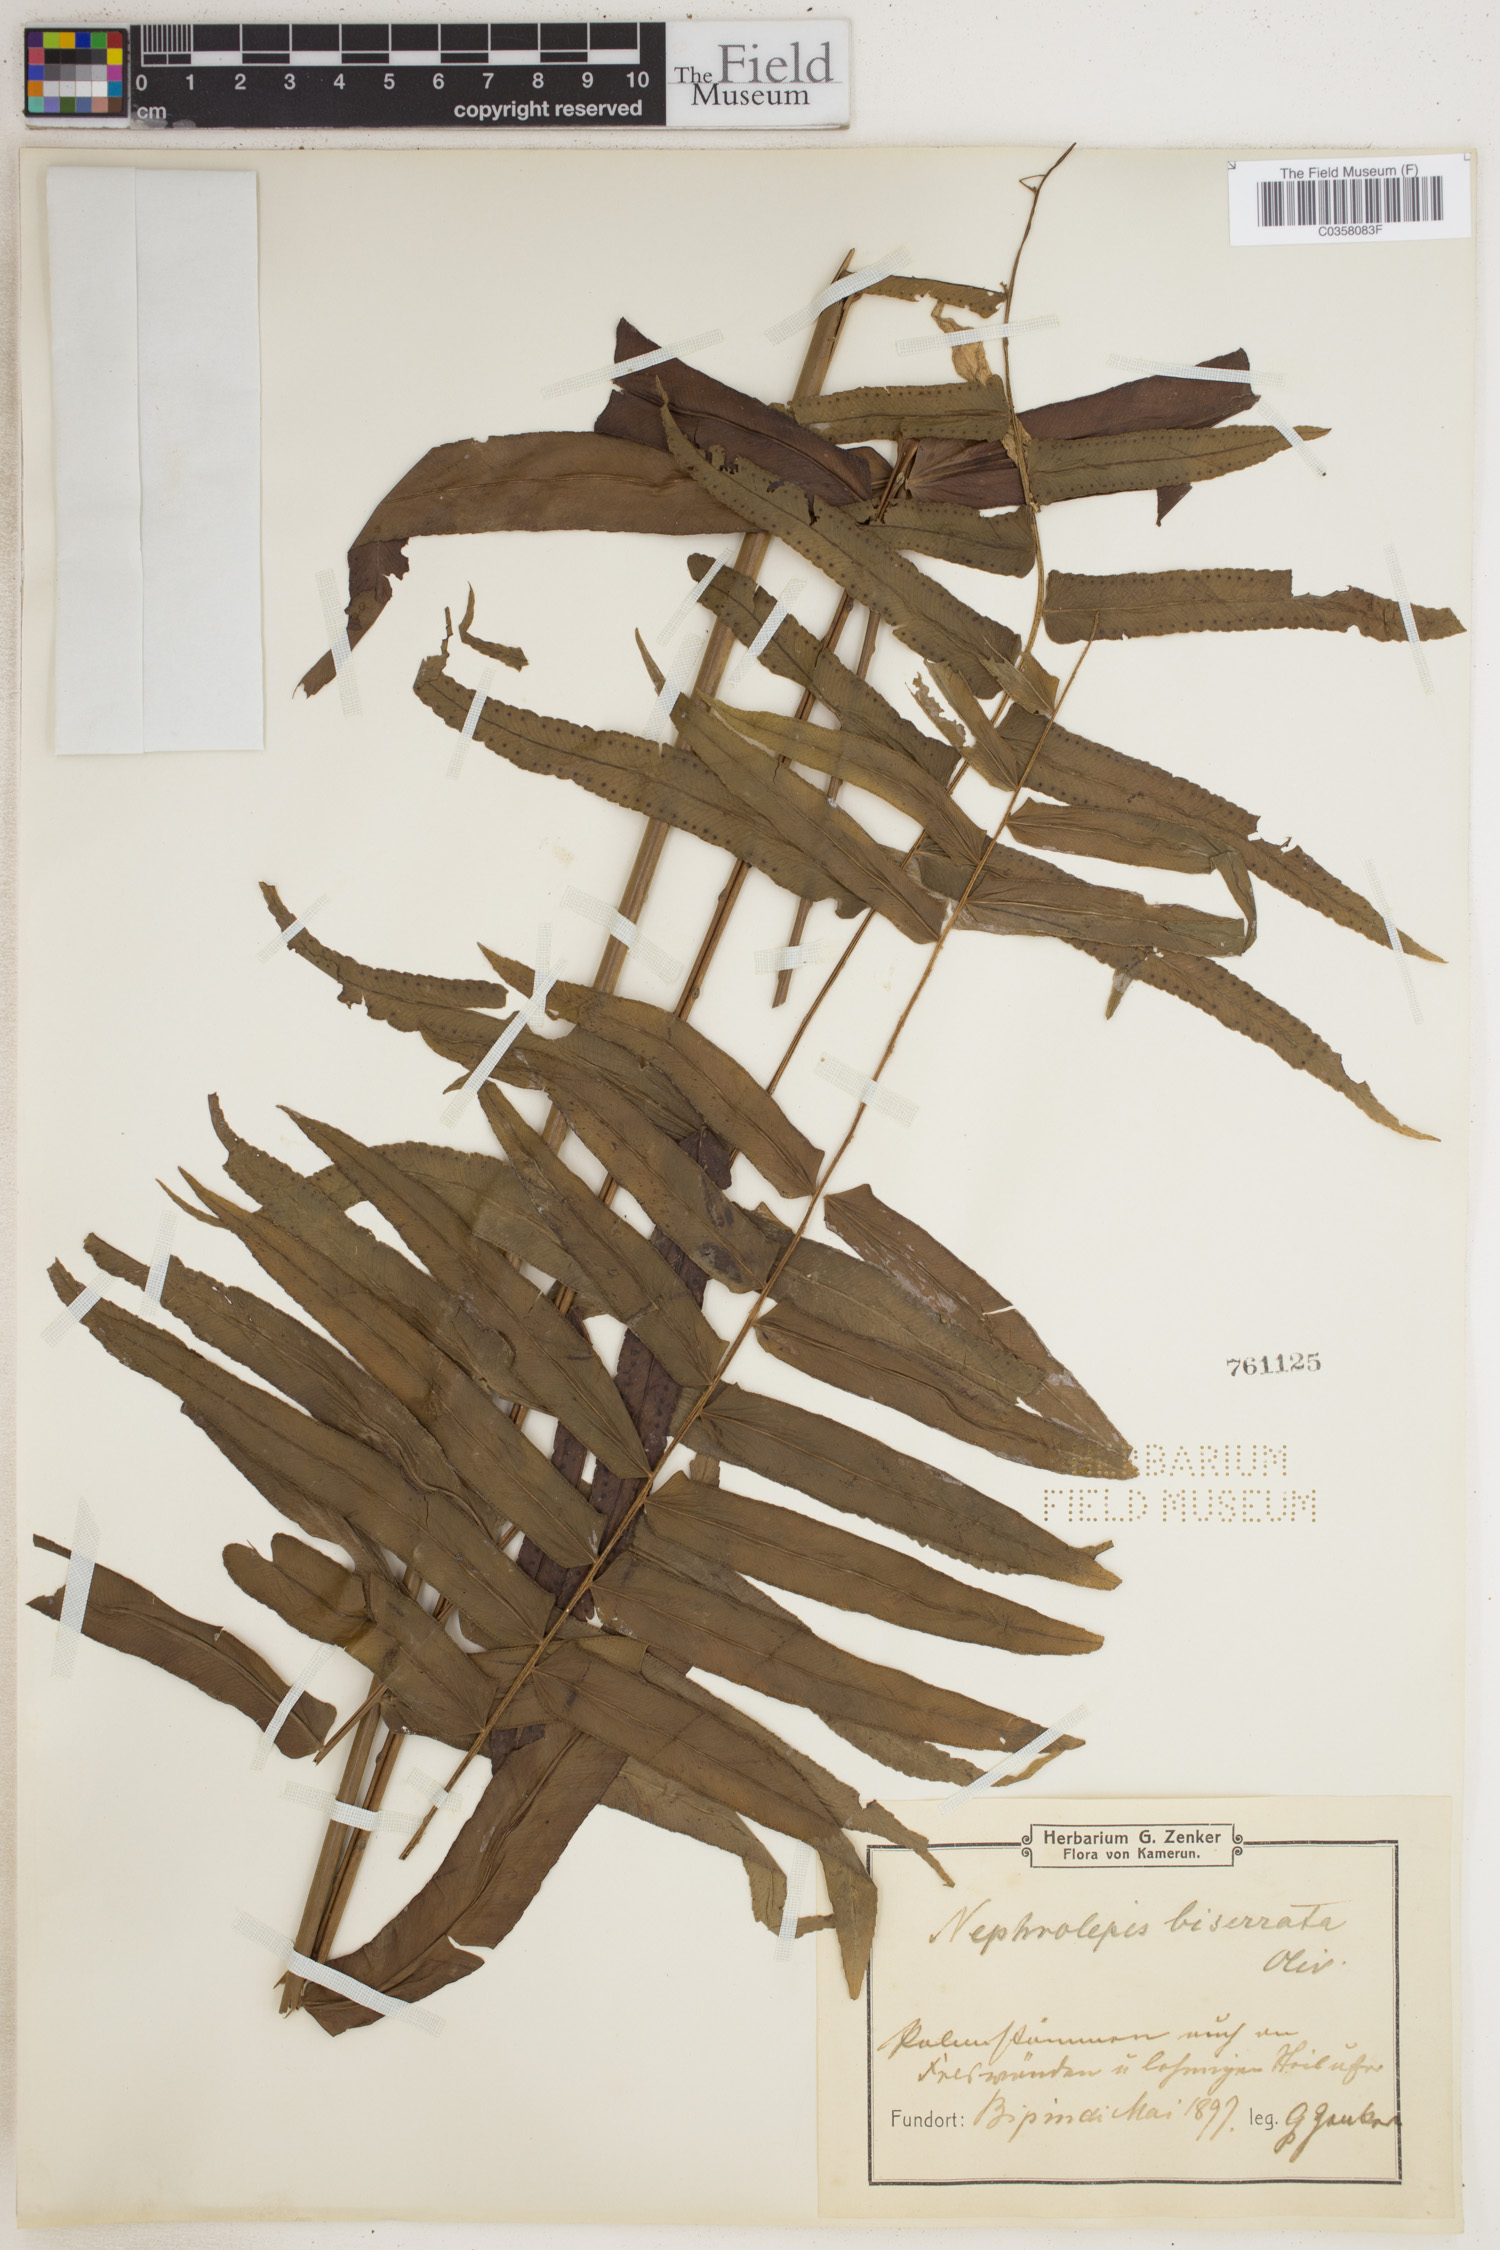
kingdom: Plantae
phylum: Tracheophyta
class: Polypodiopsida
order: Polypodiales
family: Nephrolepidaceae
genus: Nephrolepis
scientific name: Nephrolepis biserrata
